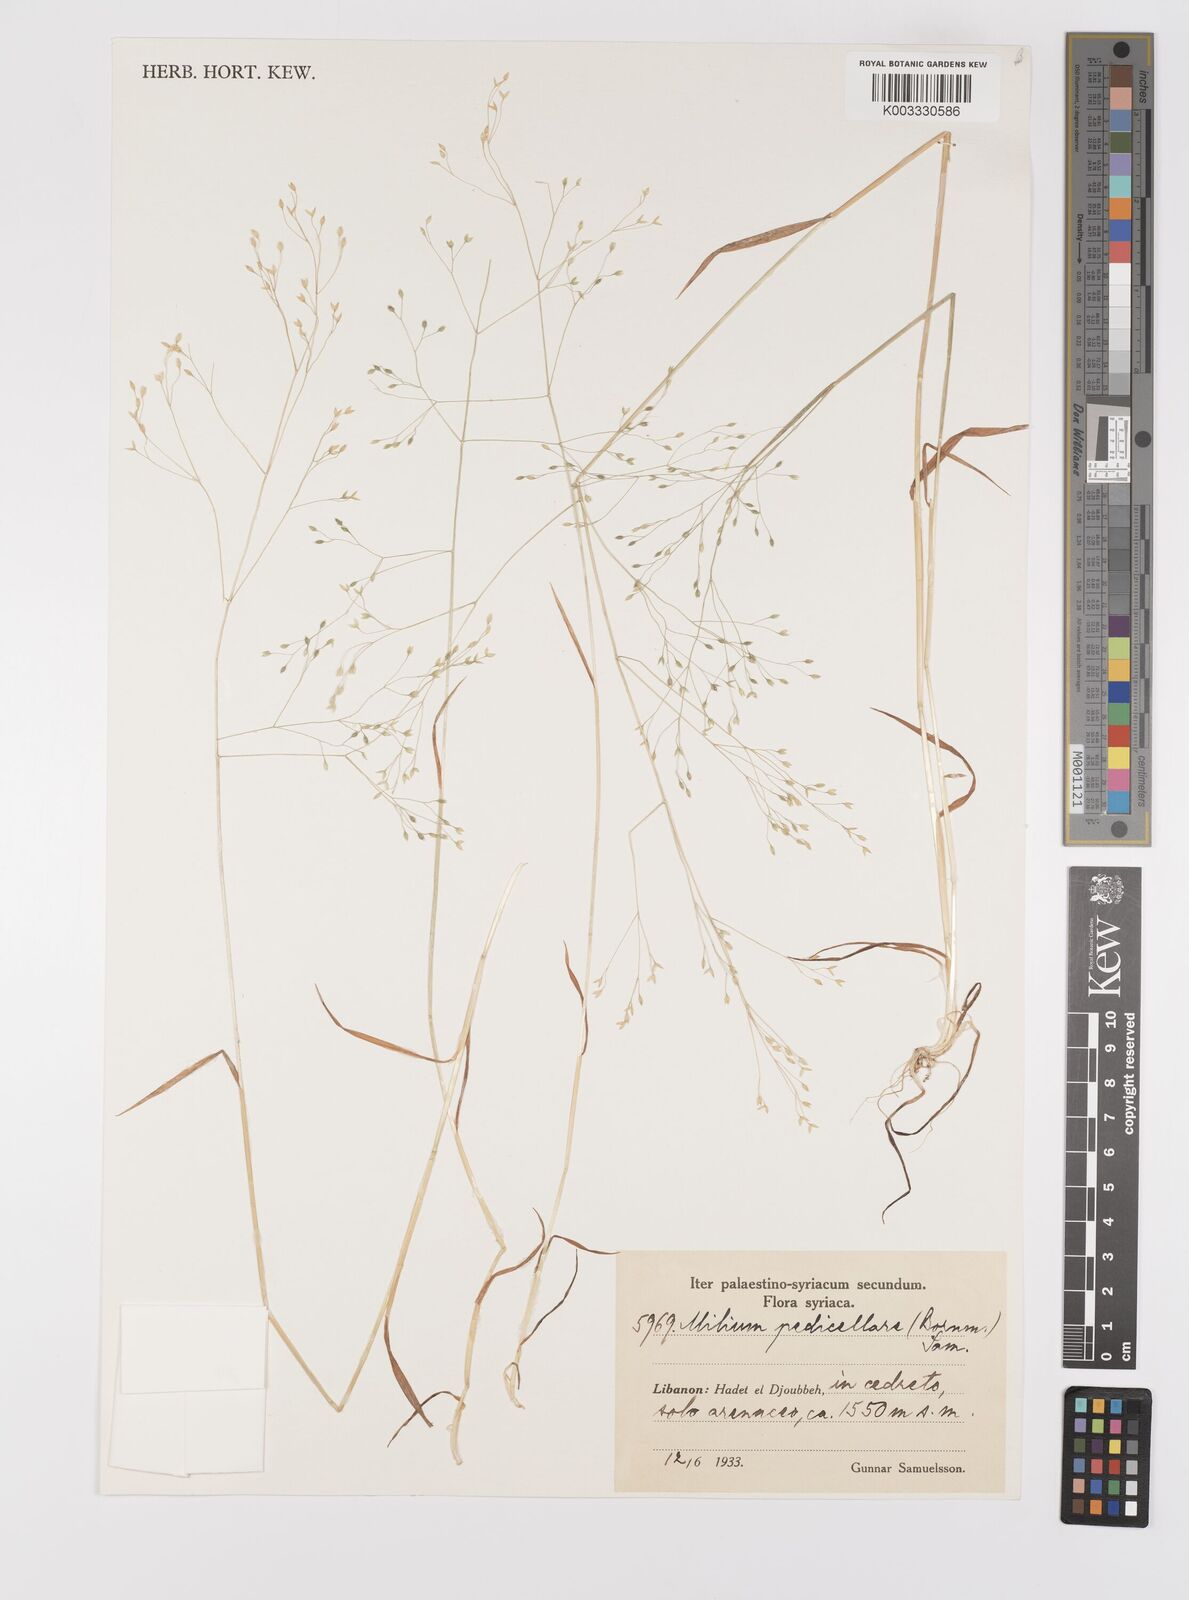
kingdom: Plantae
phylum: Tracheophyta
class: Liliopsida
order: Poales
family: Poaceae
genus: Milium
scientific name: Milium pedicellare
